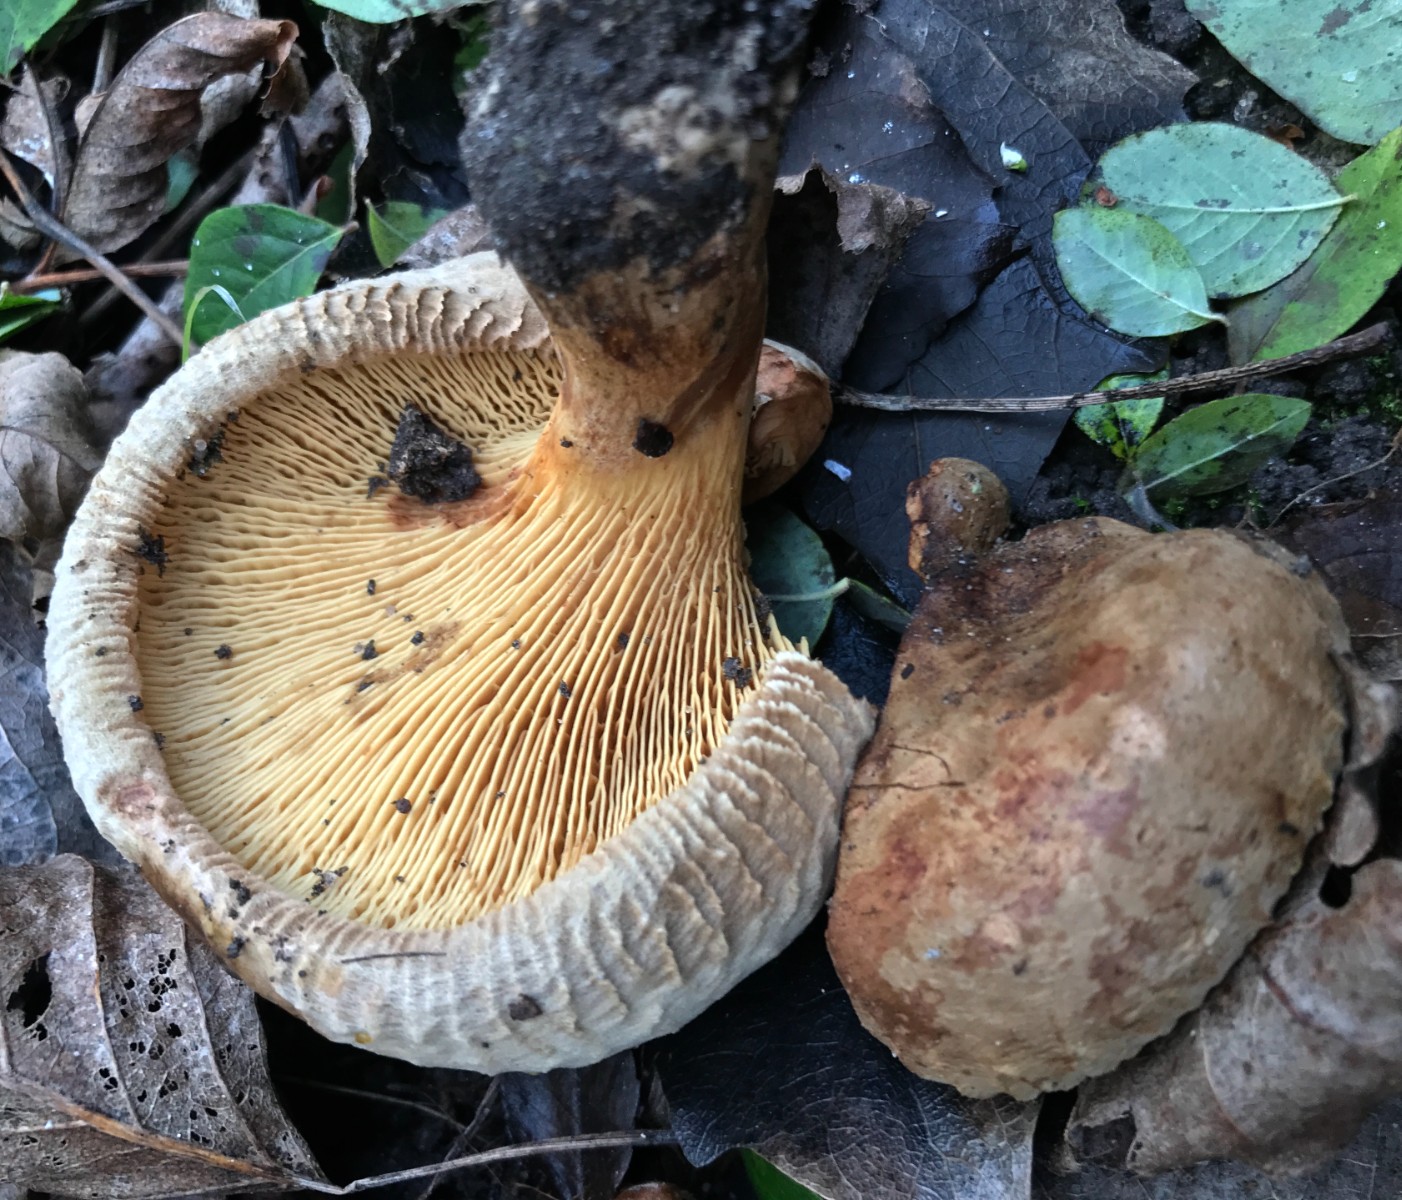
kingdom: Fungi
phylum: Basidiomycota
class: Agaricomycetes
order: Boletales
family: Paxillaceae
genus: Paxillus
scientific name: Paxillus involutus
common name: almindelig netbladhat
